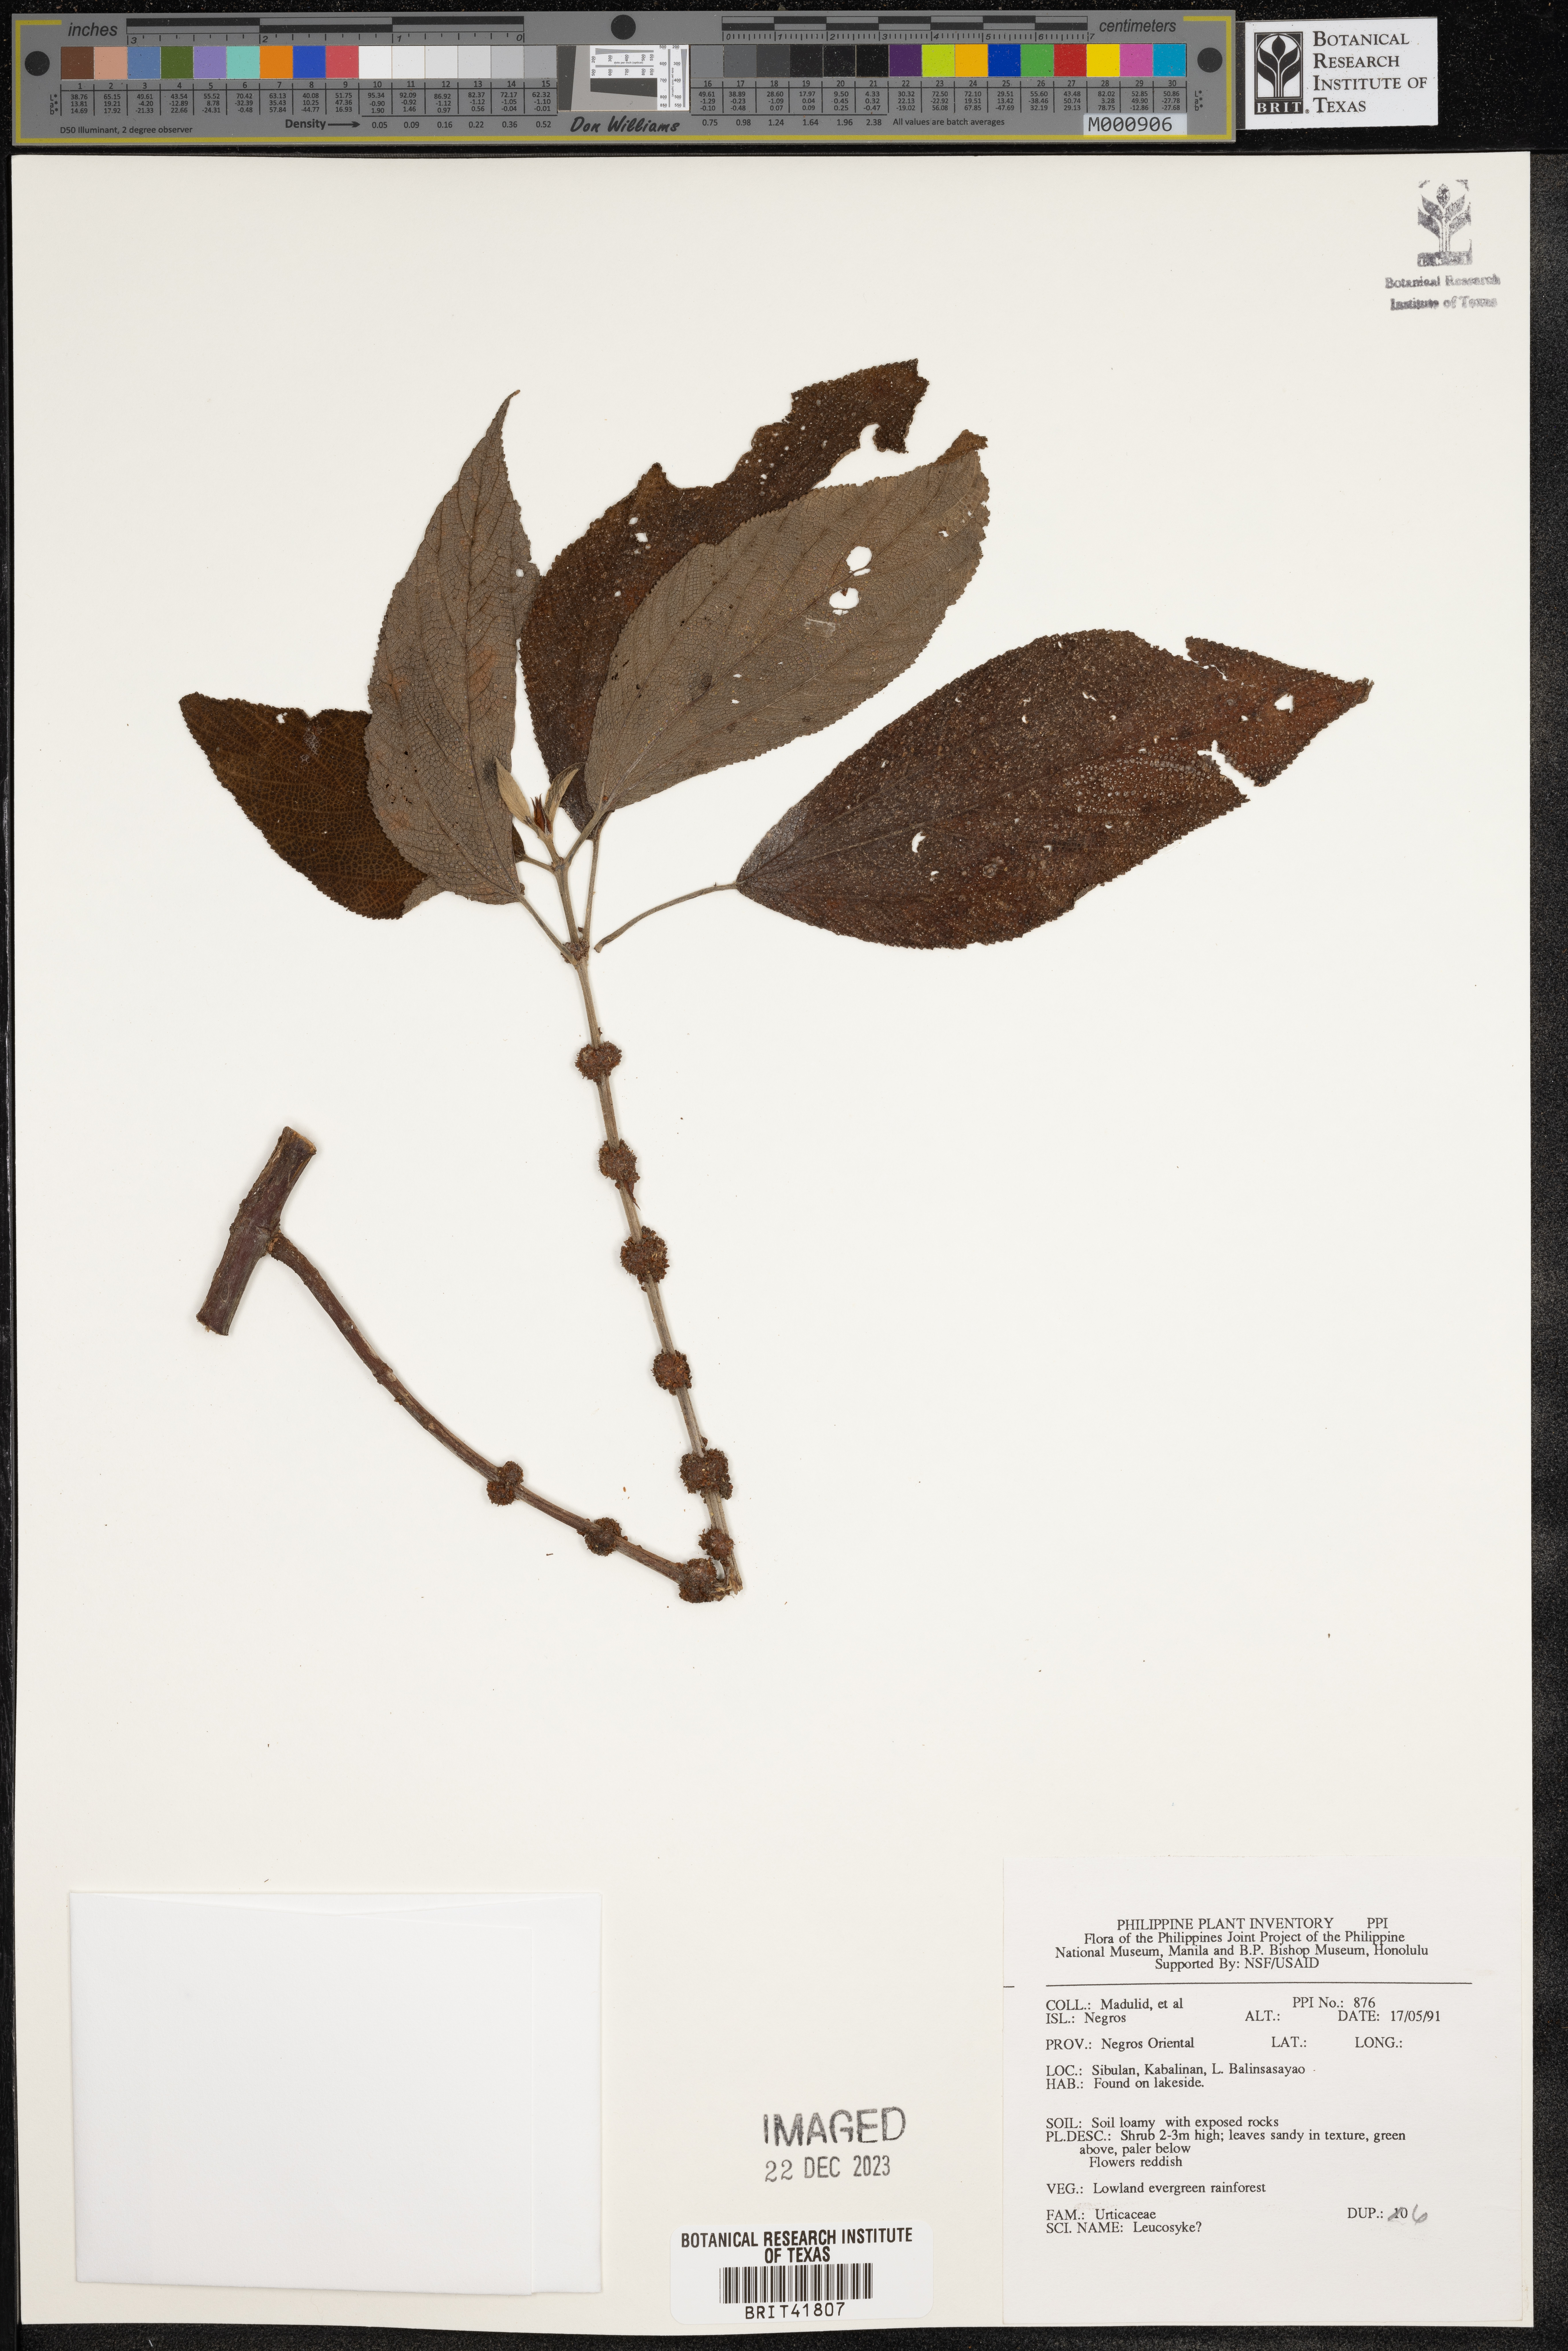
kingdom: Plantae
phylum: Tracheophyta
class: Magnoliopsida
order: Rosales
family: Urticaceae
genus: Leucosyke
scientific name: Leucosyke
